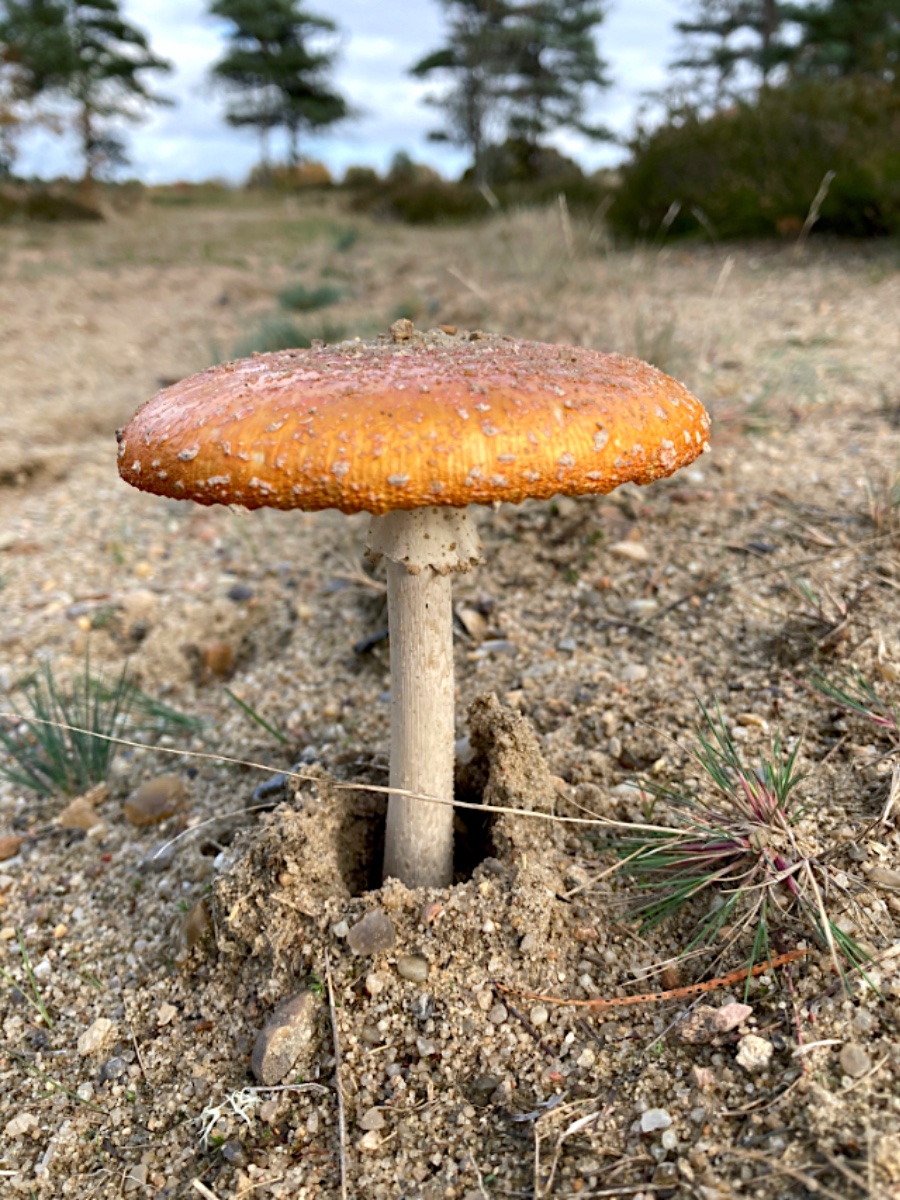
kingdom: Fungi
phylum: Basidiomycota
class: Agaricomycetes
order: Agaricales
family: Amanitaceae
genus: Amanita
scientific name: Amanita muscaria
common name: rød fluesvamp
